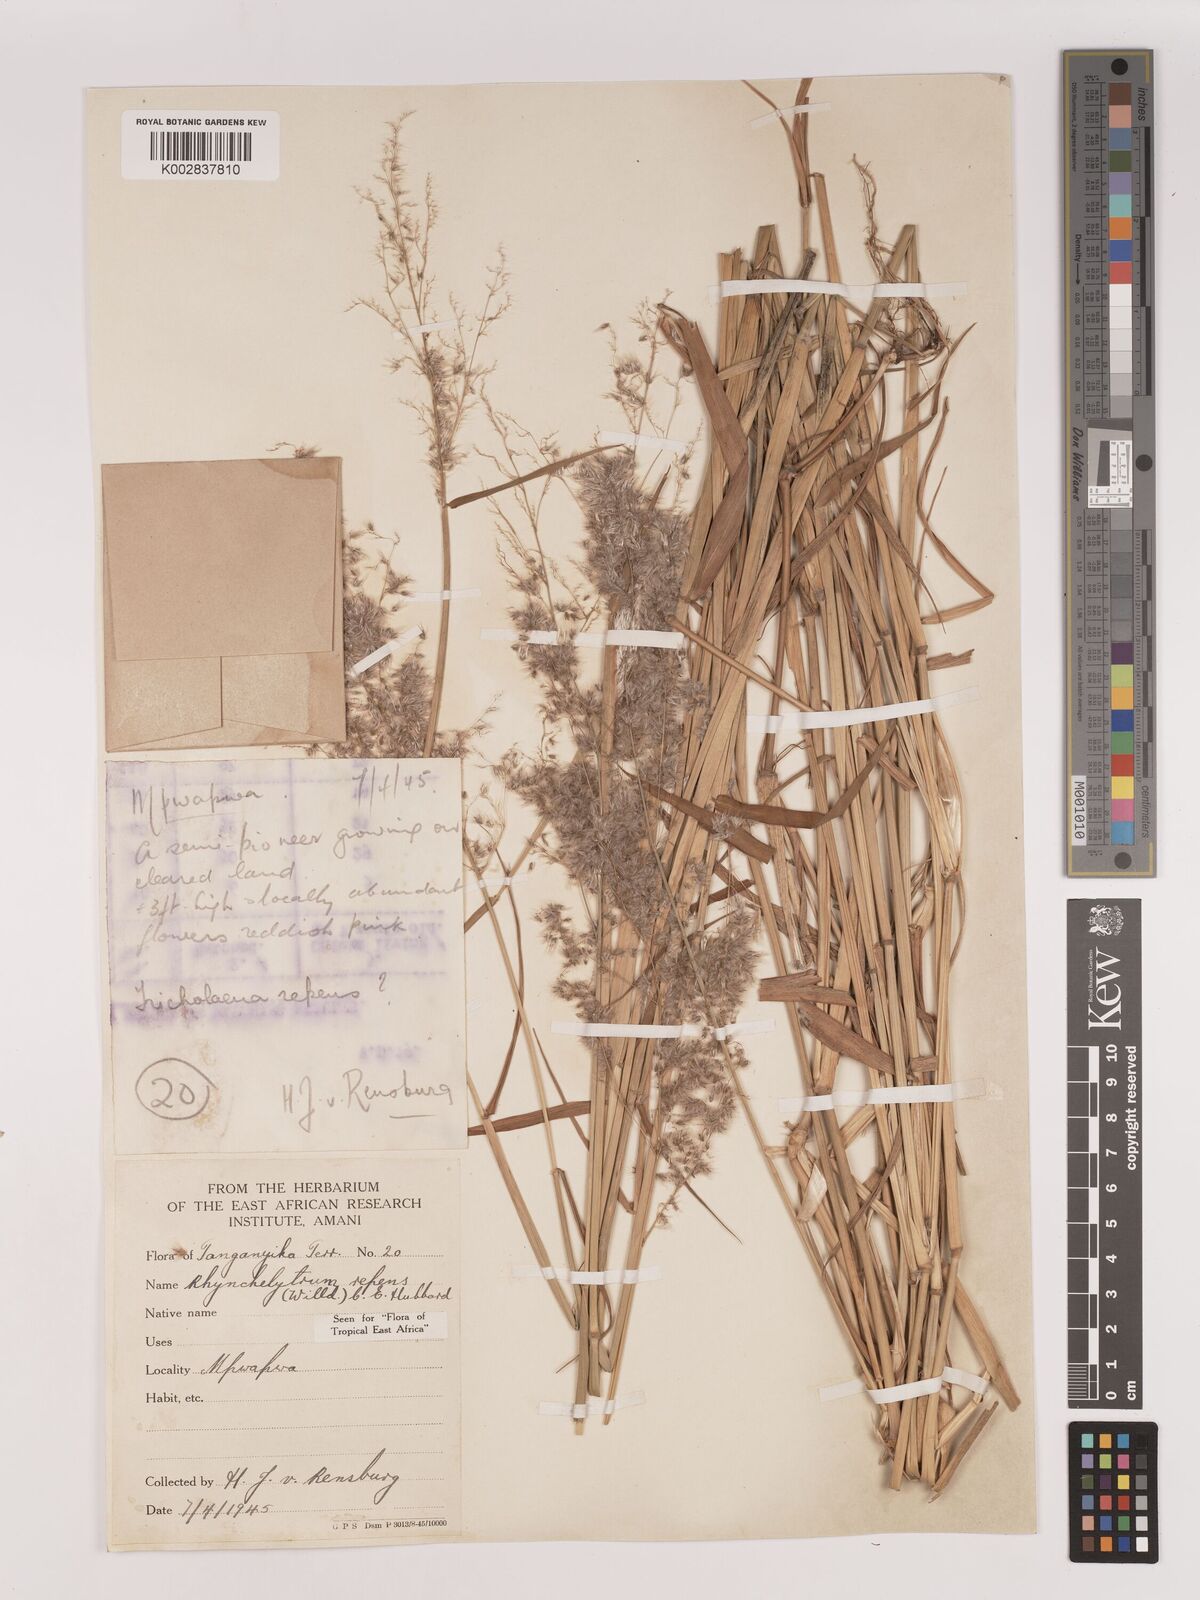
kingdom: Plantae
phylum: Tracheophyta
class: Liliopsida
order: Poales
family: Poaceae
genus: Melinis
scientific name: Melinis repens
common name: Rose natal grass
